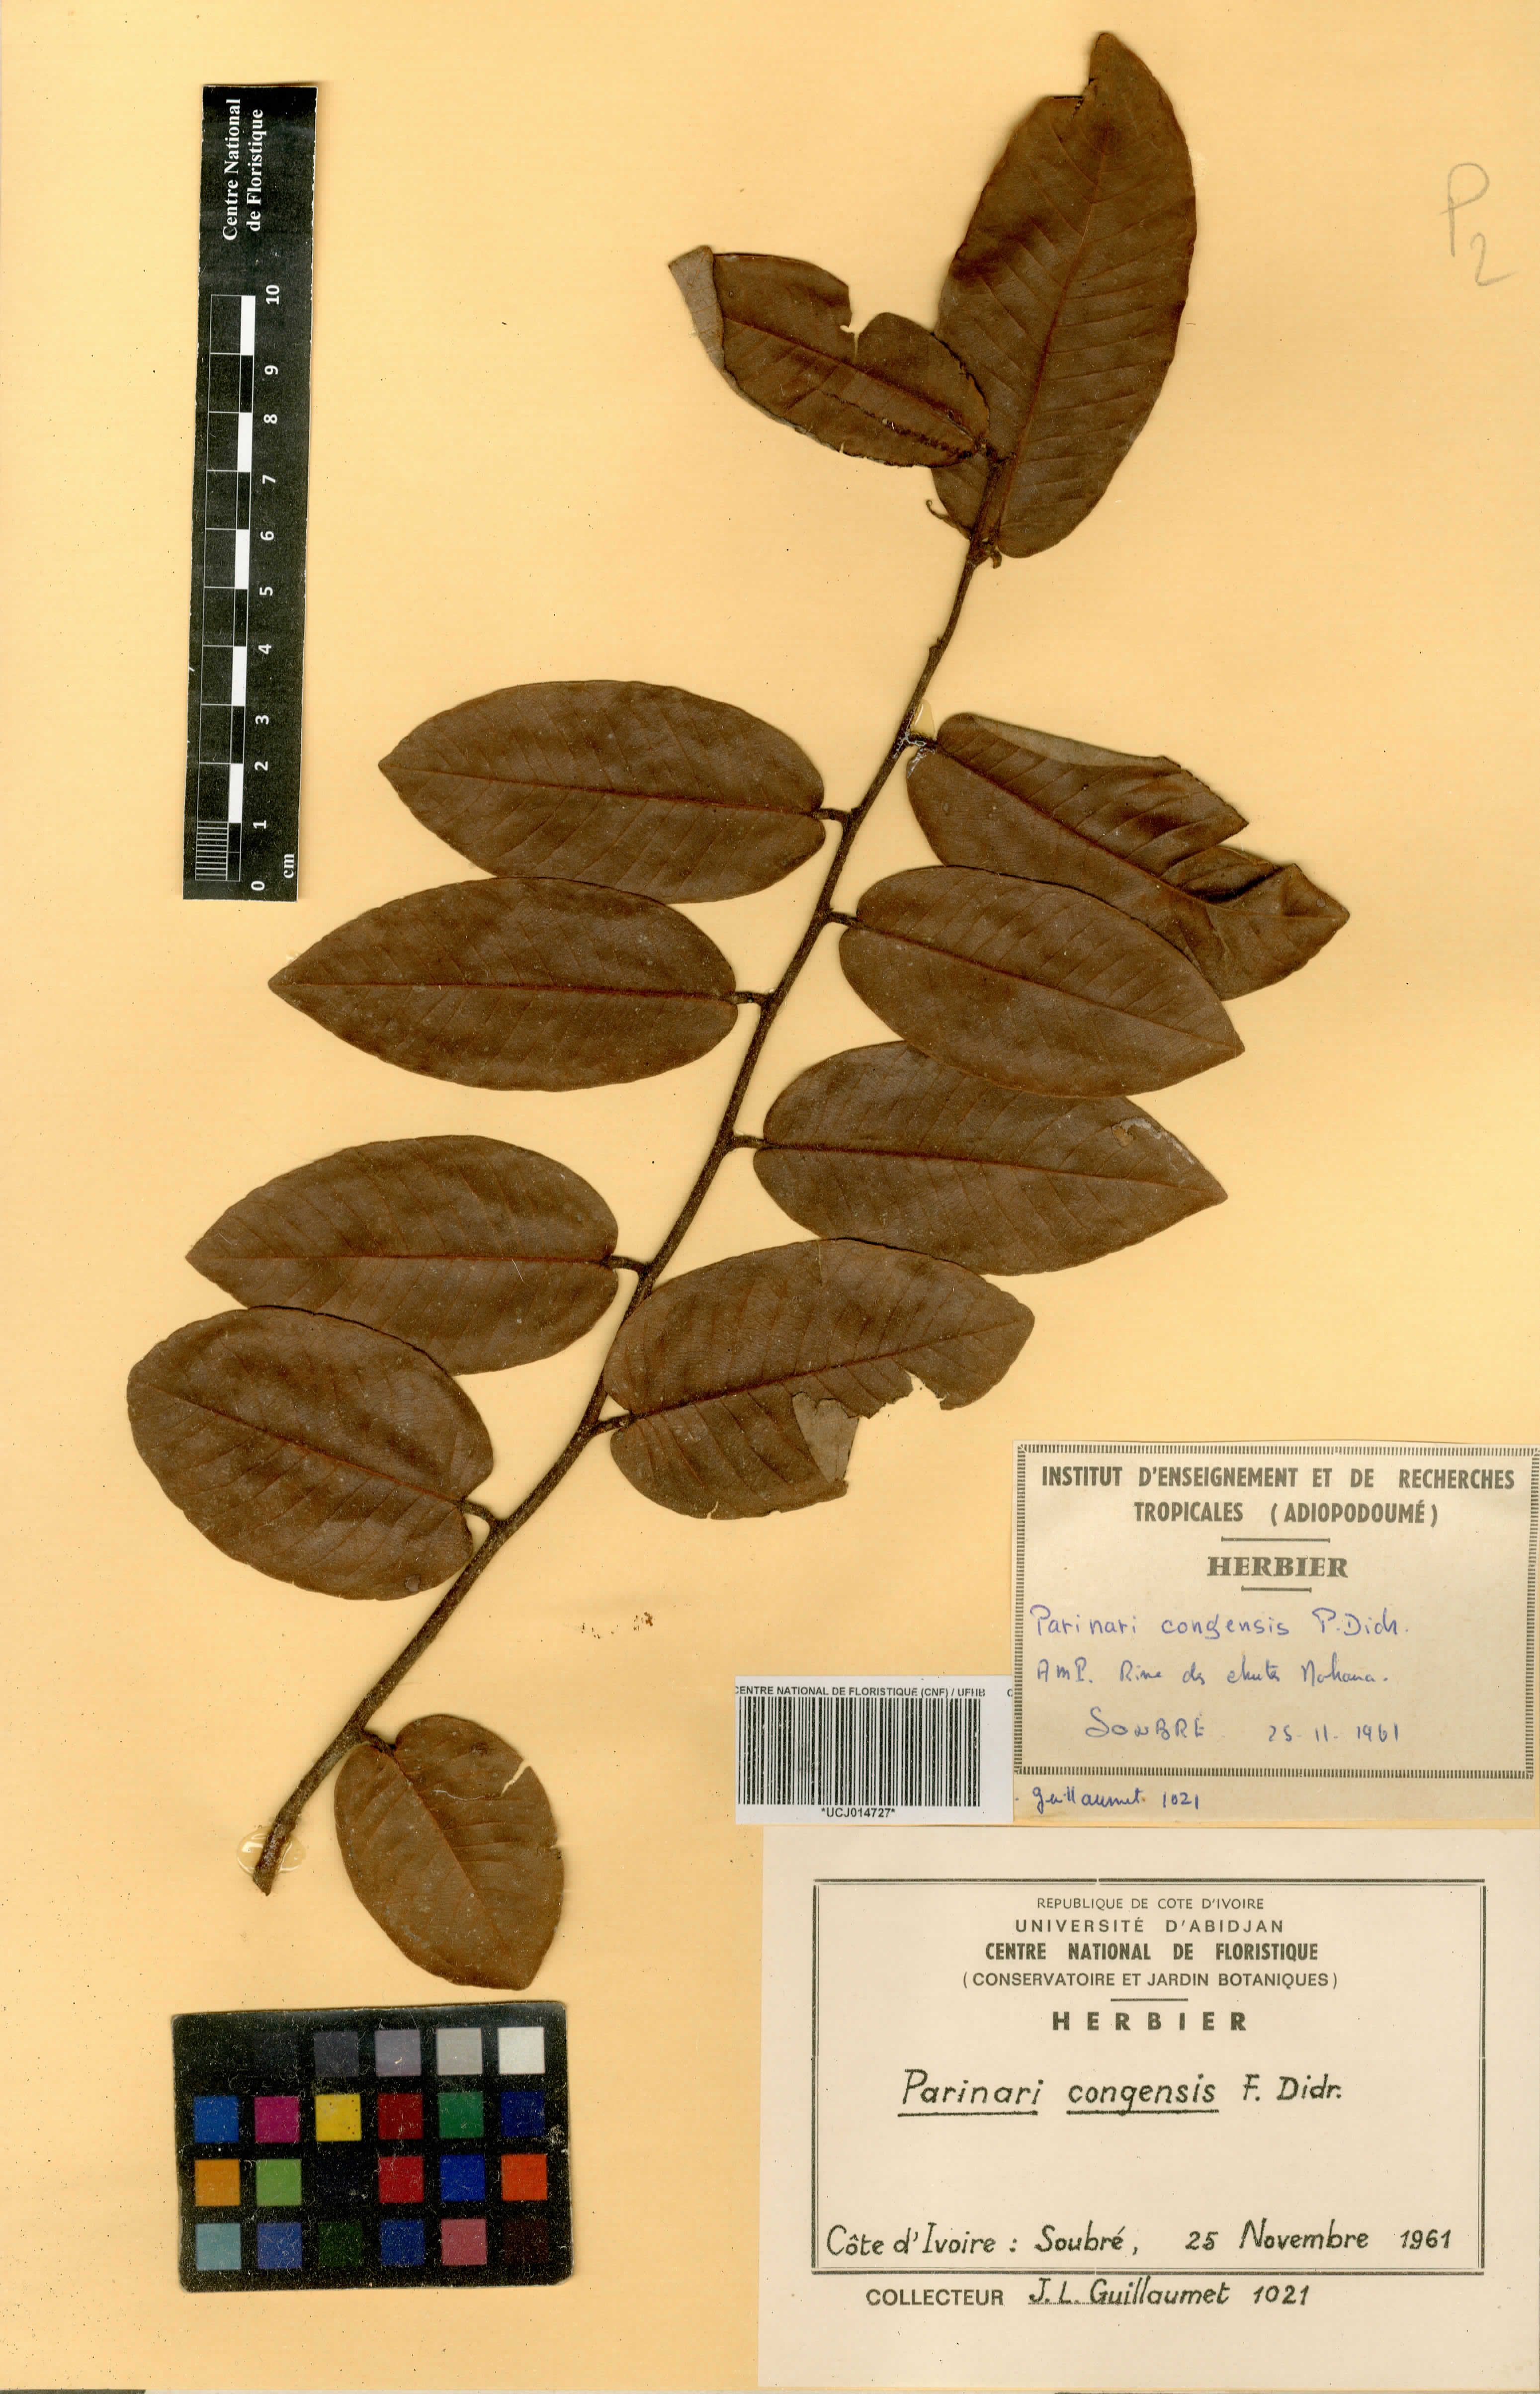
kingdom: Plantae
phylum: Tracheophyta
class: Magnoliopsida
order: Malpighiales
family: Chrysobalanaceae
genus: Parinari
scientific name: Parinari congensis
